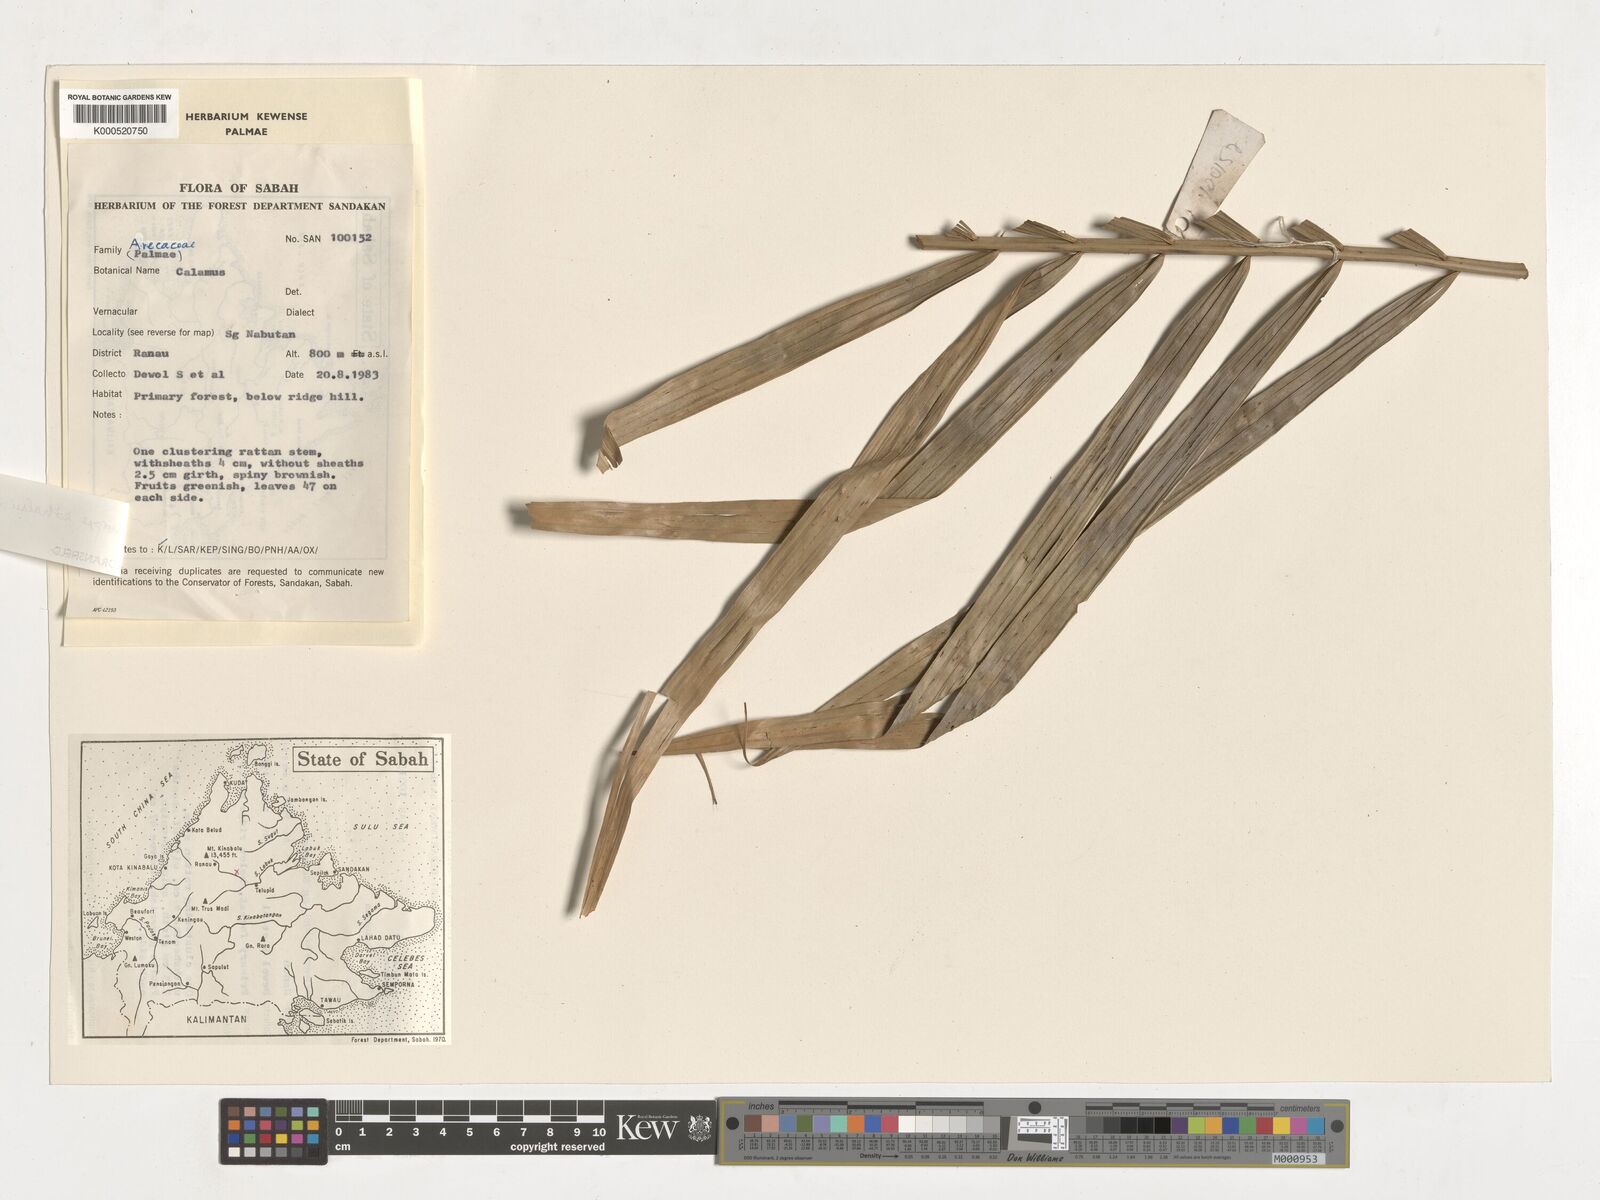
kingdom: Plantae
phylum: Tracheophyta
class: Liliopsida
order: Arecales
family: Arecaceae
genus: Calamus
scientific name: Calamus hirsutus
